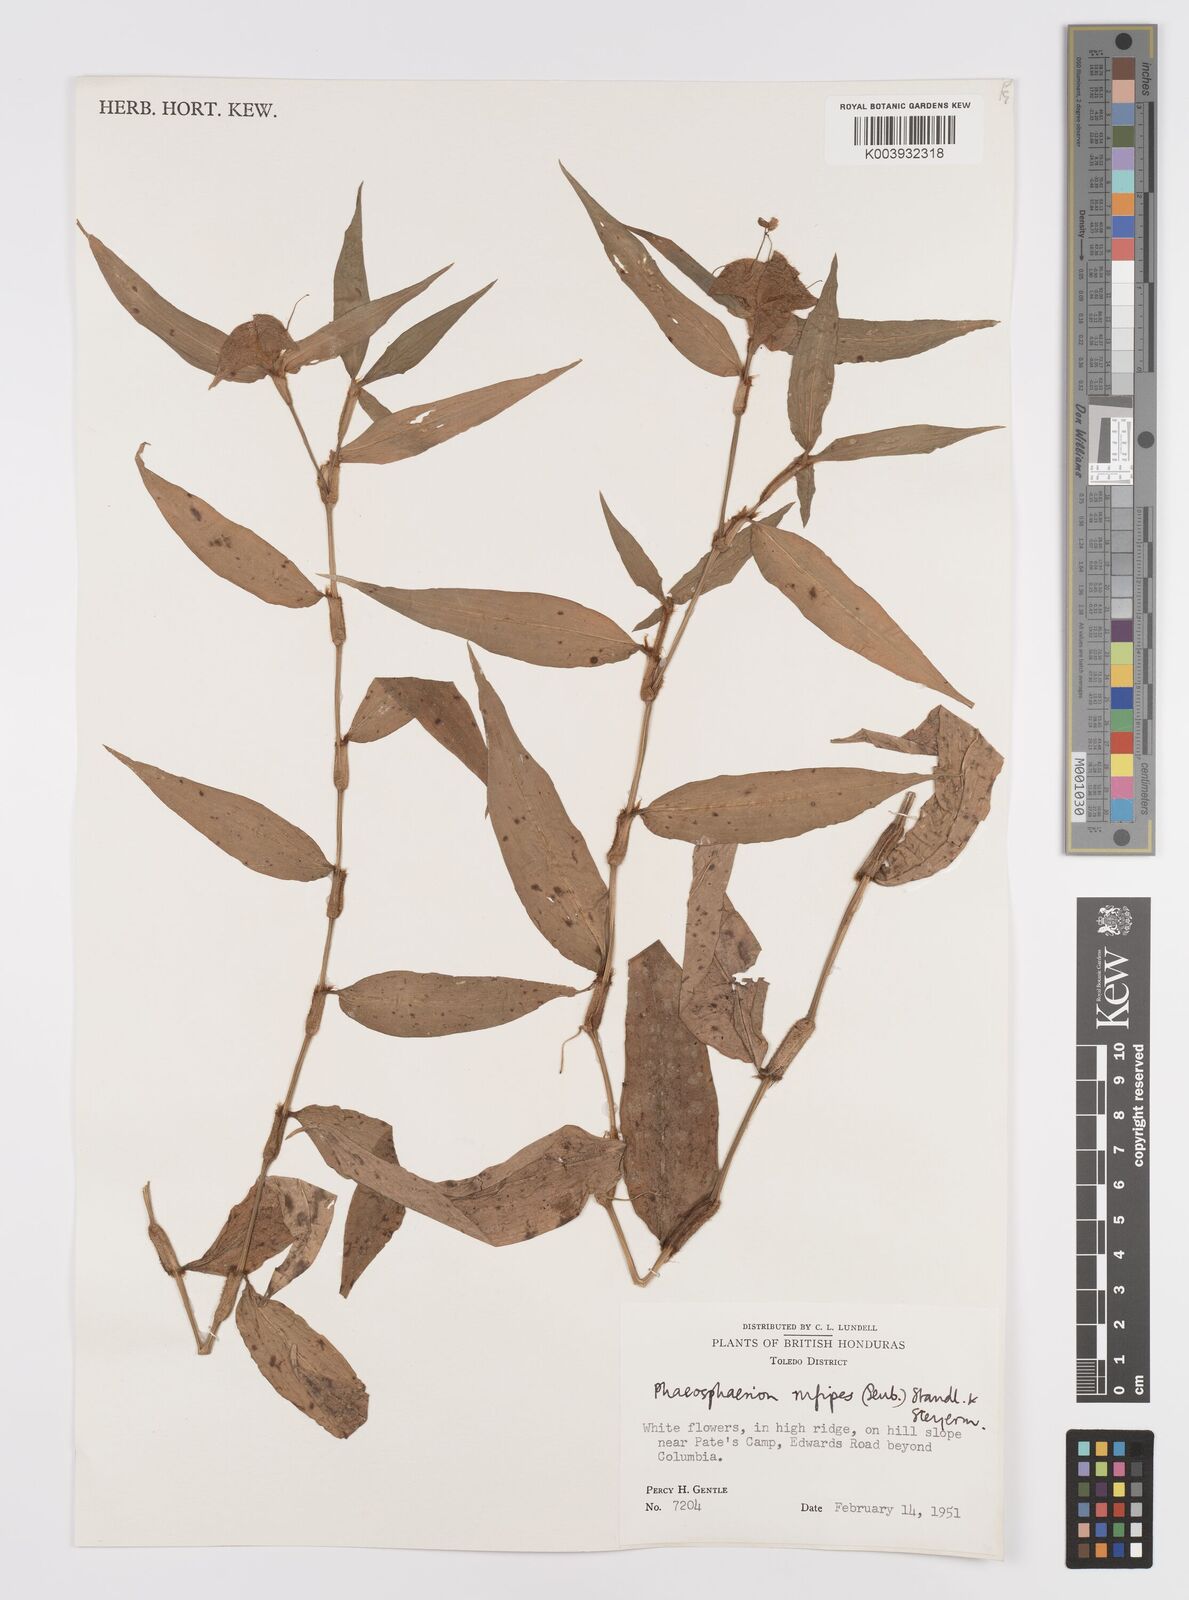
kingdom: Plantae
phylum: Tracheophyta
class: Liliopsida
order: Commelinales
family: Commelinaceae
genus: Commelina
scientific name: Commelina rufipes
